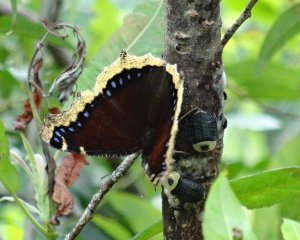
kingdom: Animalia
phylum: Arthropoda
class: Insecta
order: Lepidoptera
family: Nymphalidae
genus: Nymphalis
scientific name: Nymphalis antiopa
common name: Mourning Cloak
